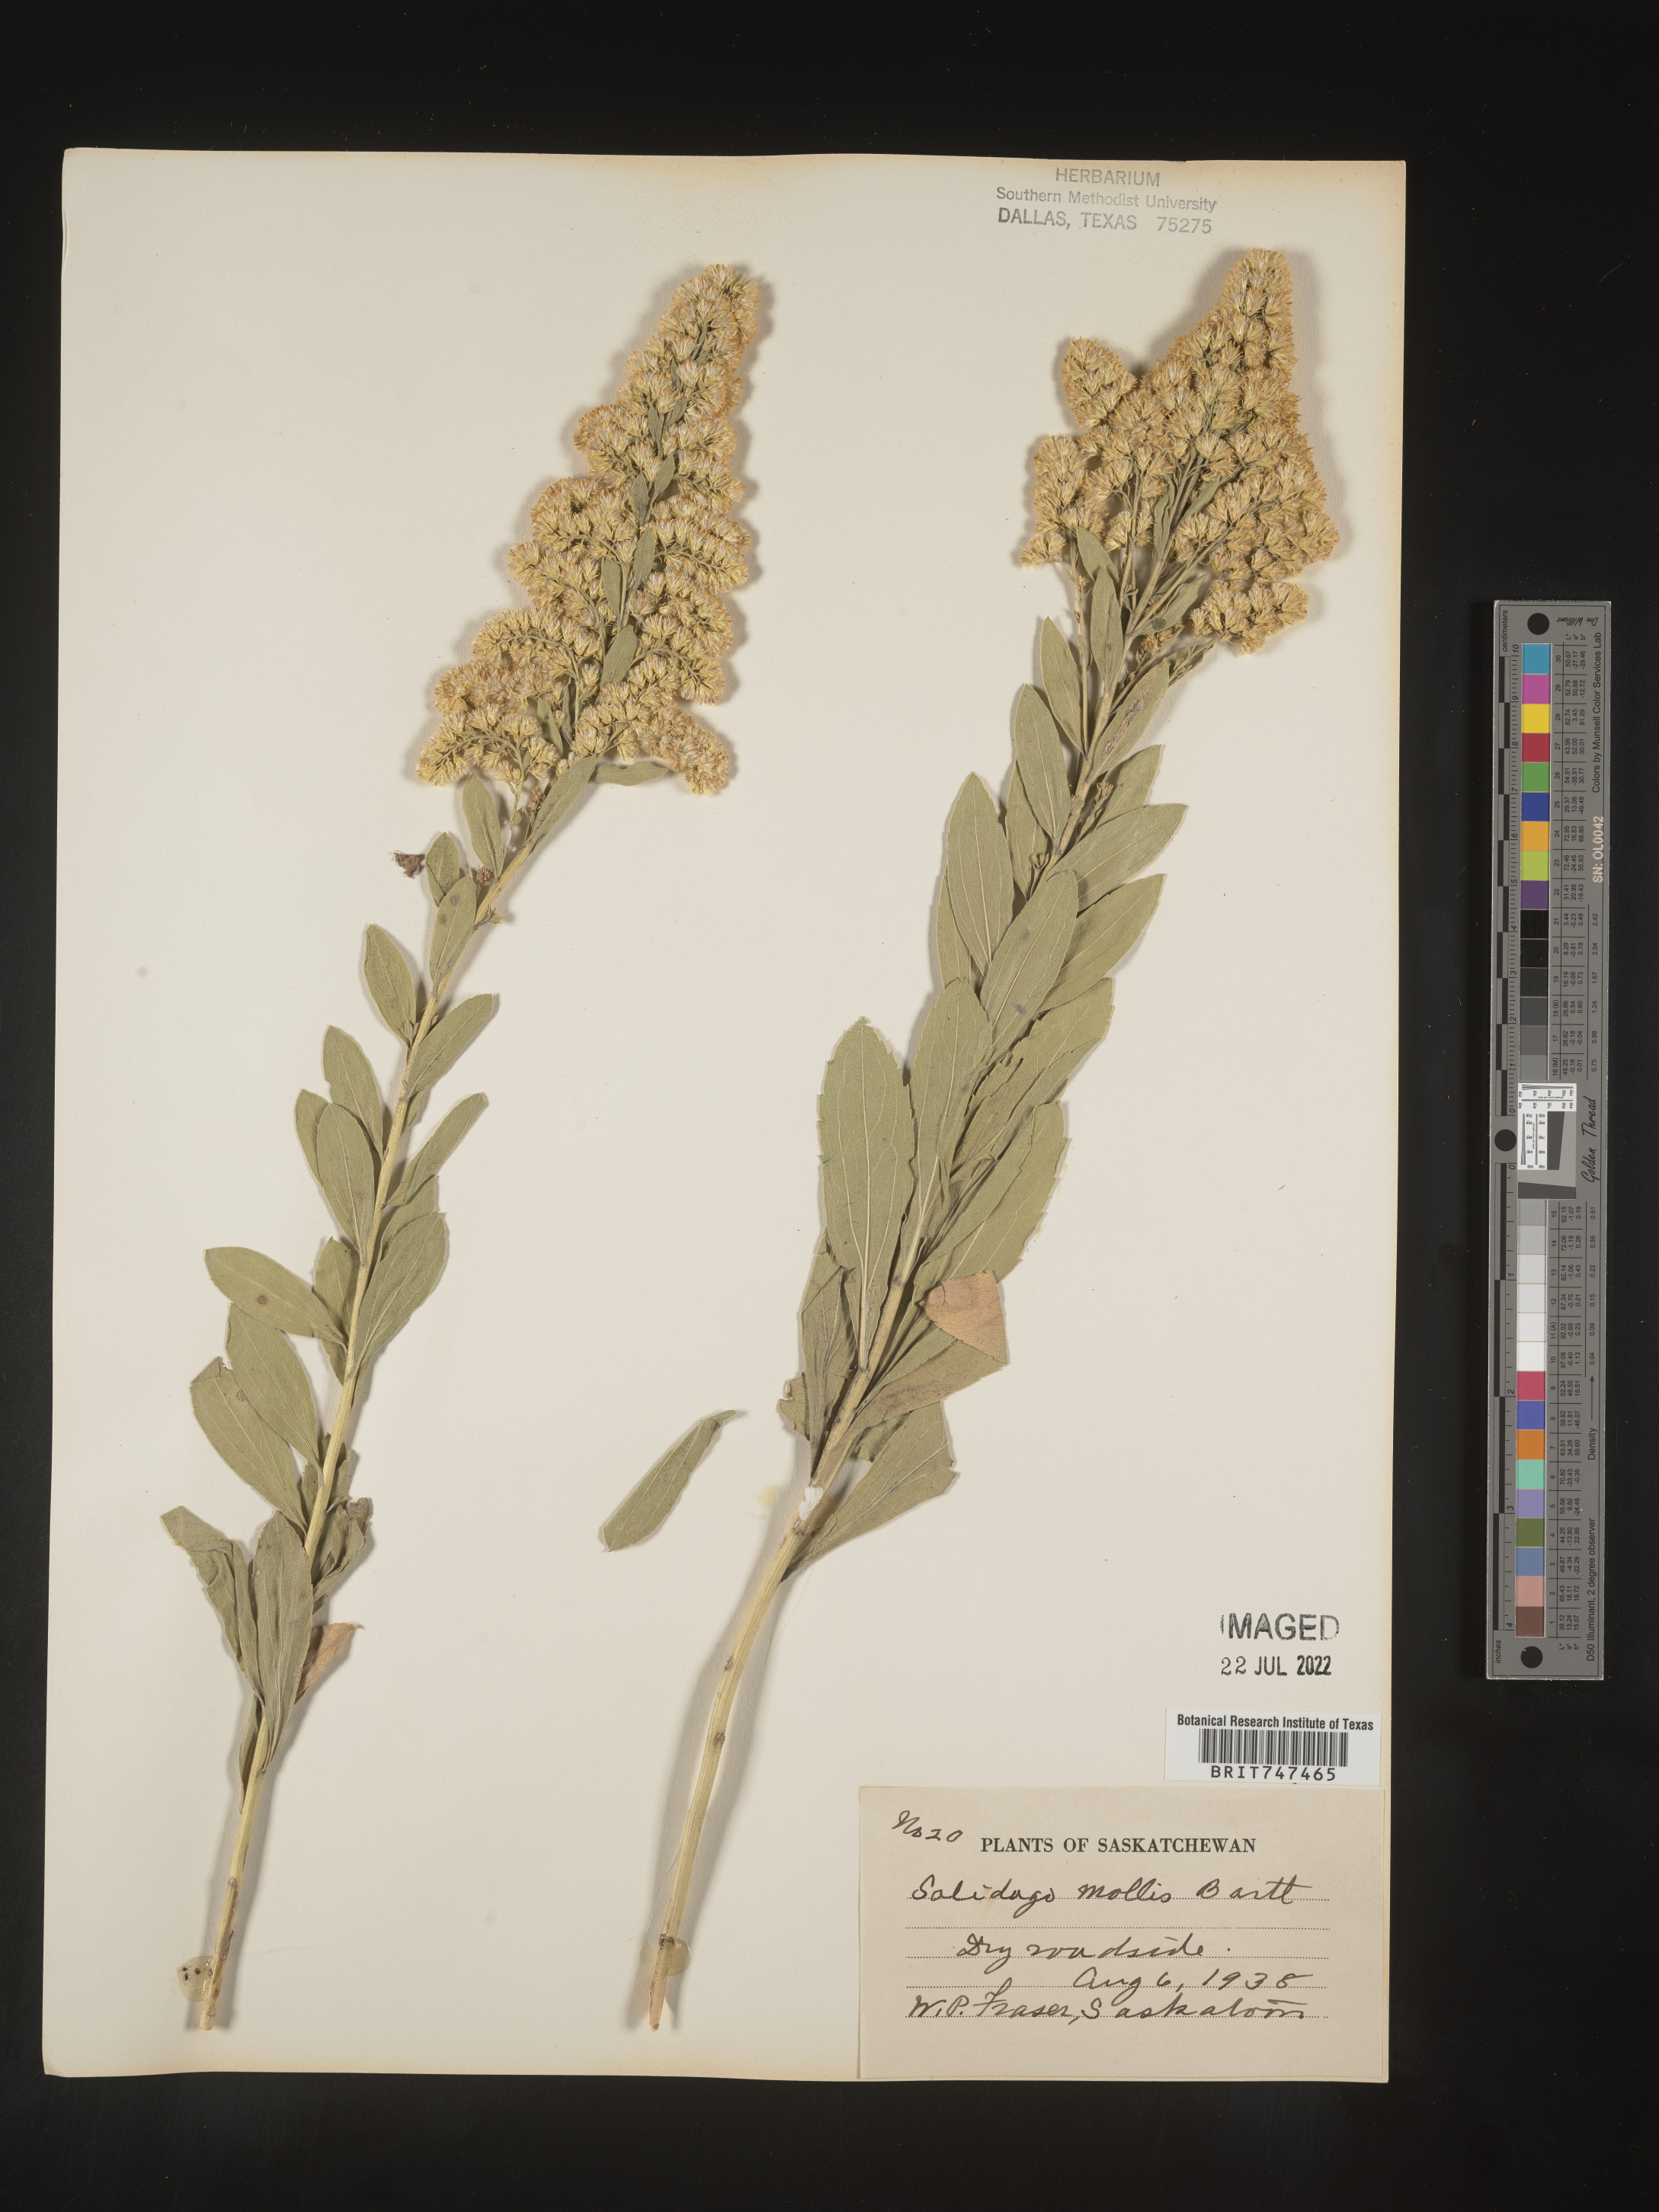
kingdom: Plantae
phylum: Tracheophyta
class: Magnoliopsida
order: Asterales
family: Asteraceae
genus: Solidago
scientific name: Solidago mollis
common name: Ashly goldenrod
